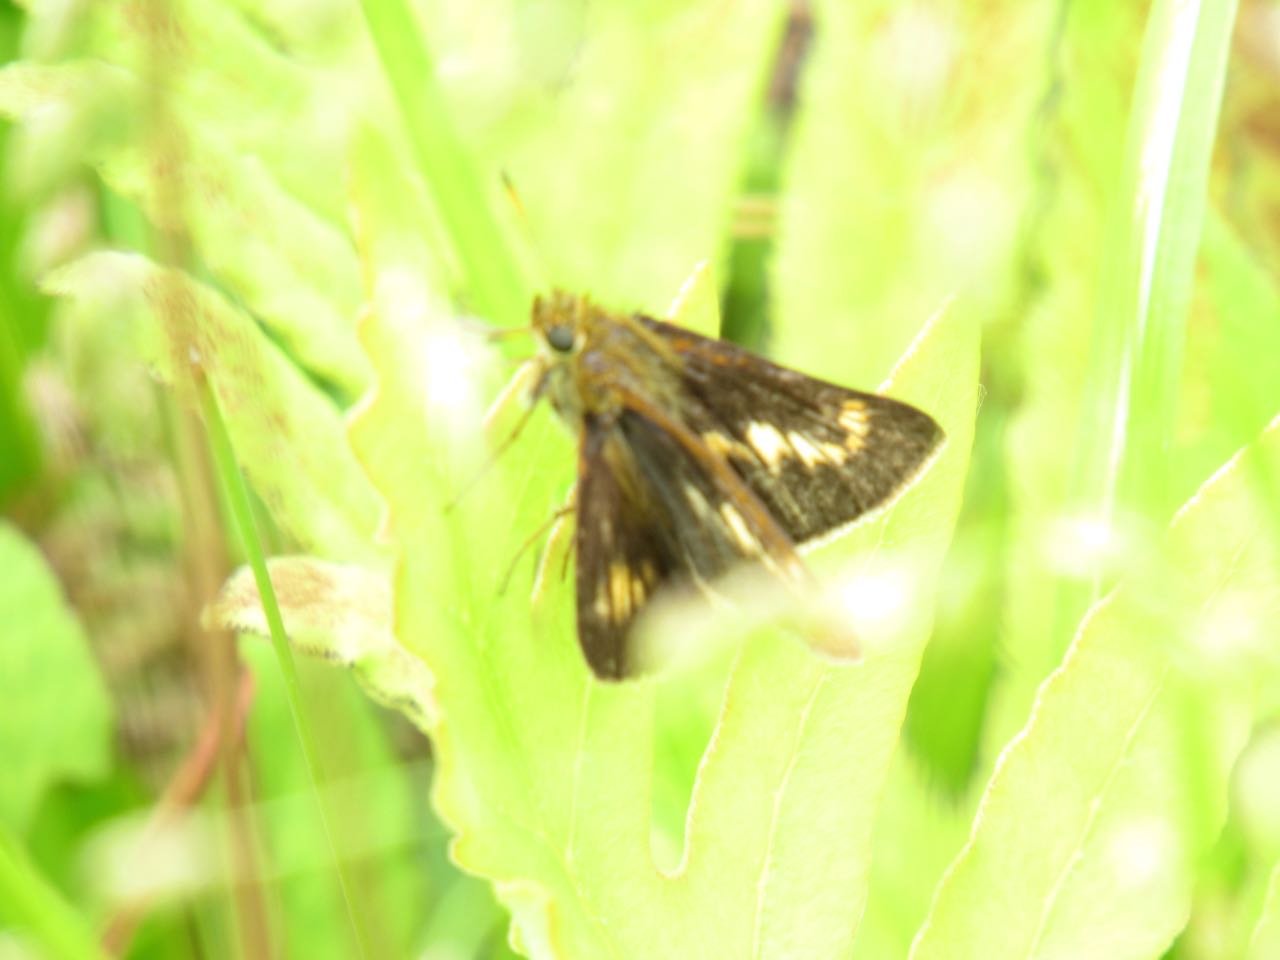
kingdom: Animalia
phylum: Arthropoda
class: Insecta
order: Lepidoptera
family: Hesperiidae
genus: Euphyes
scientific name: Euphyes conspicua
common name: Black Dash
